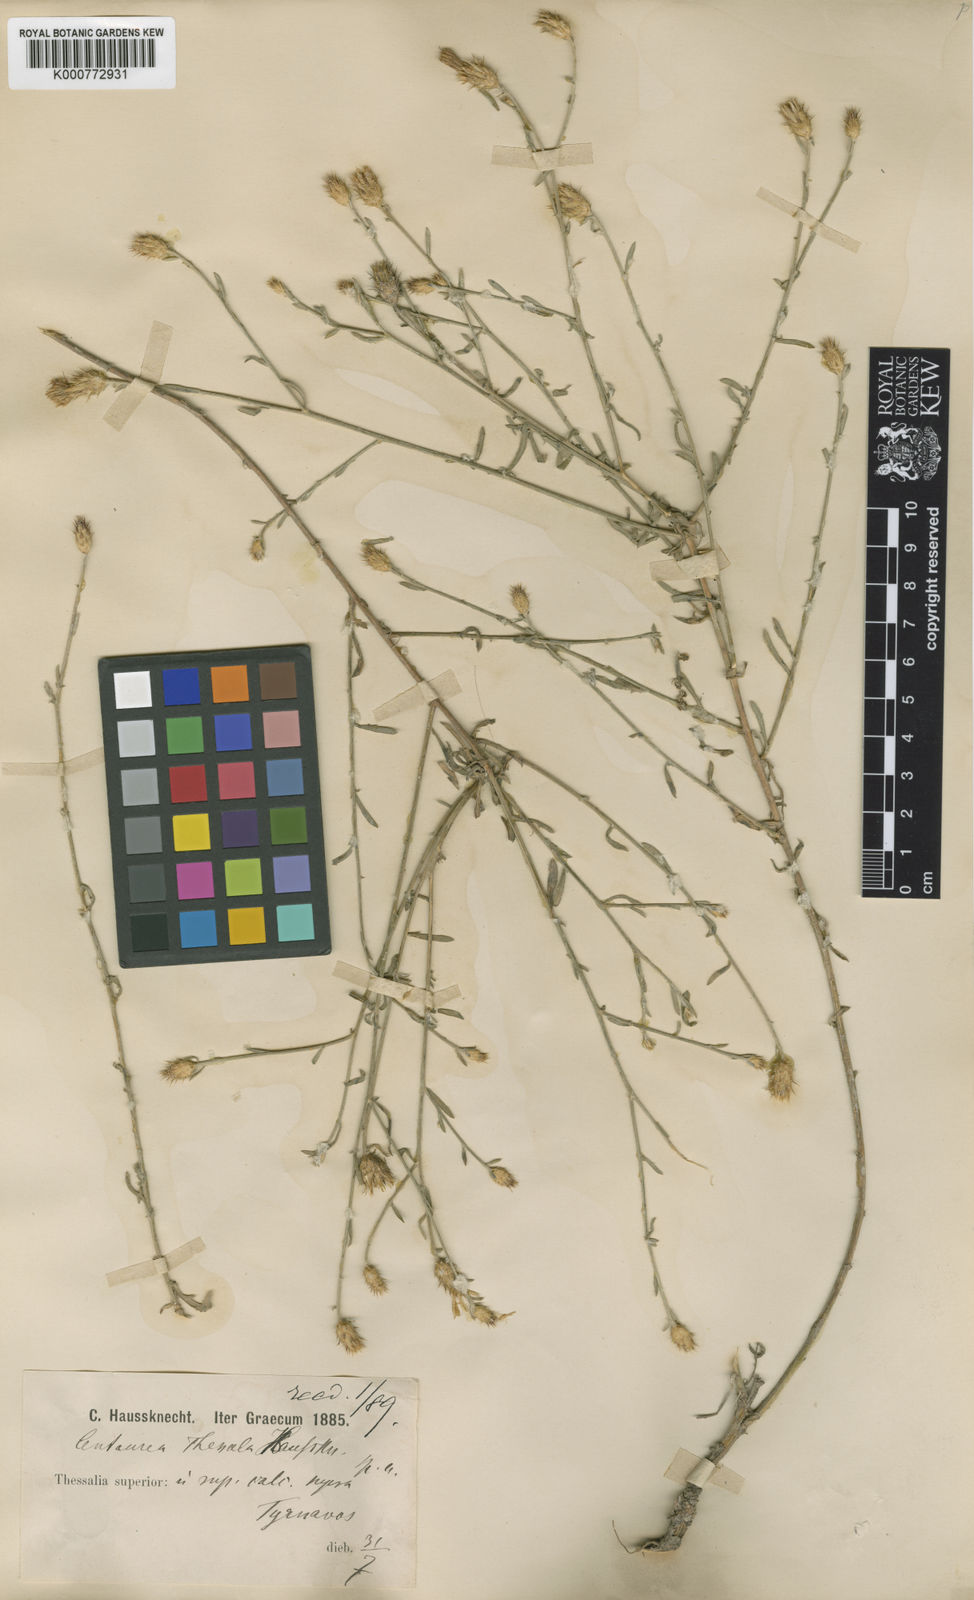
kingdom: Plantae
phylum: Tracheophyta
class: Magnoliopsida
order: Asterales
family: Asteraceae
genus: Centaurea
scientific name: Centaurea thessala
